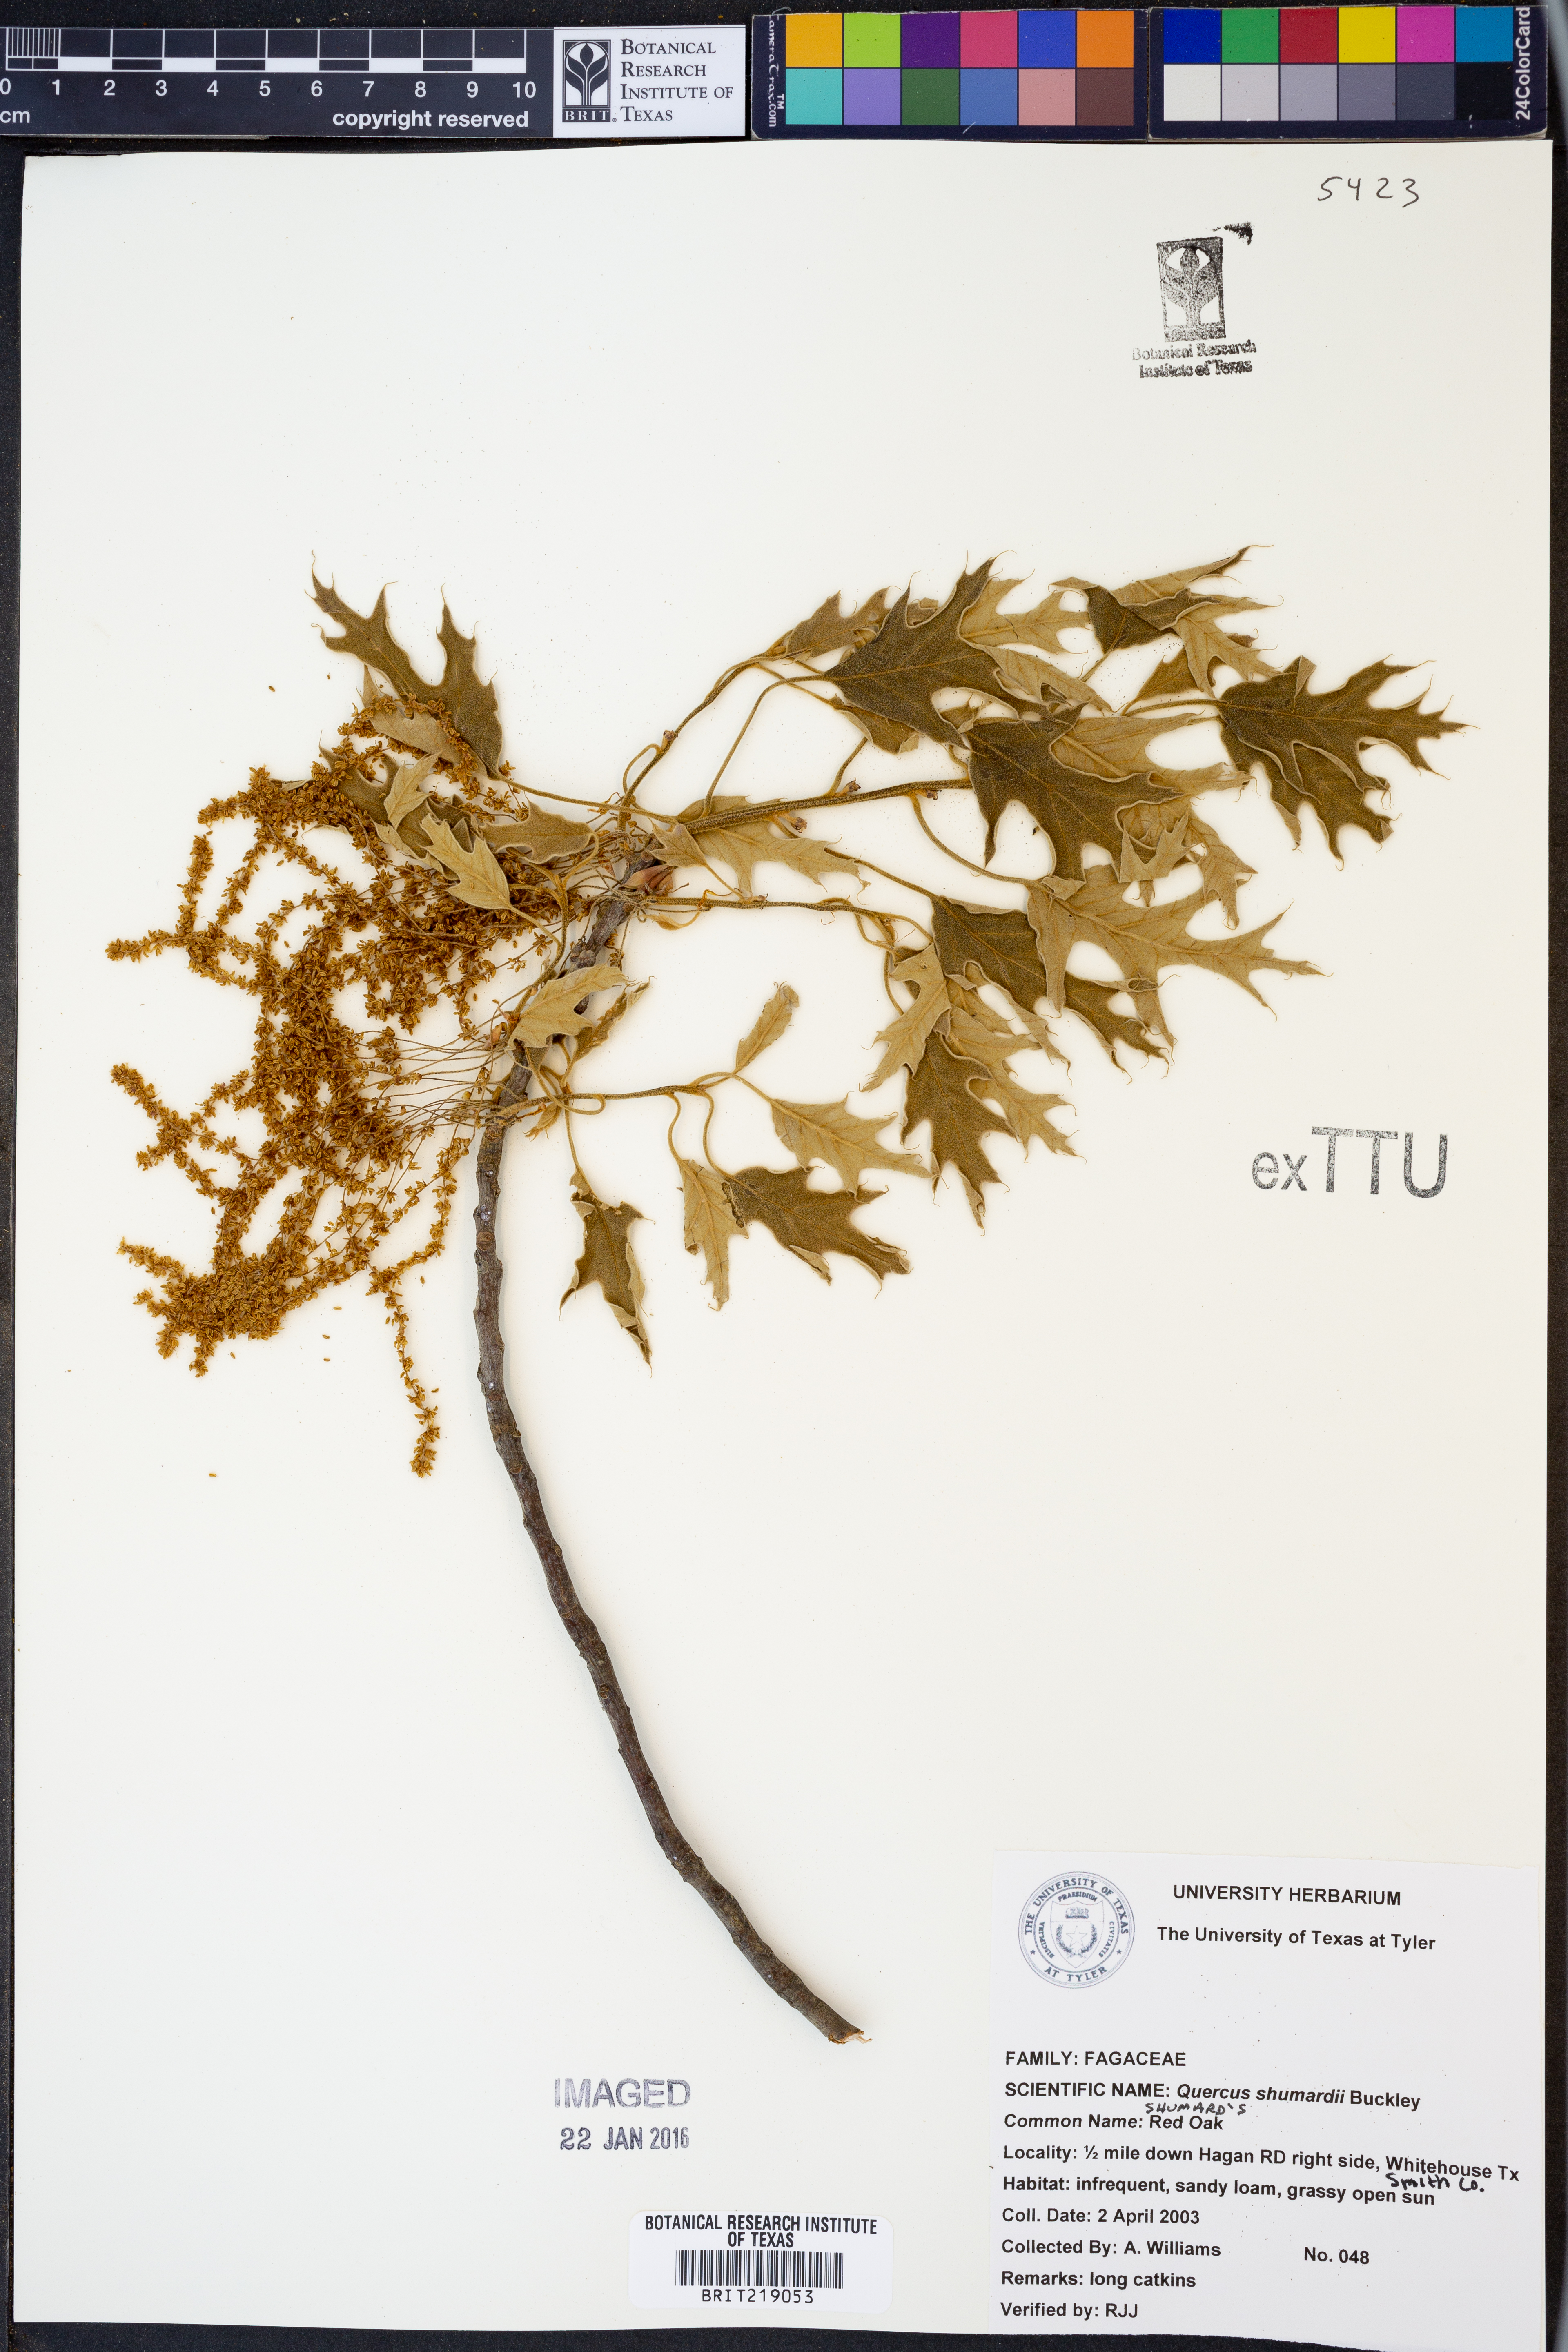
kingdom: Plantae
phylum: Tracheophyta
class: Magnoliopsida
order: Fagales
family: Fagaceae
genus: Quercus
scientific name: Quercus shumardii
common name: Shumard oak
